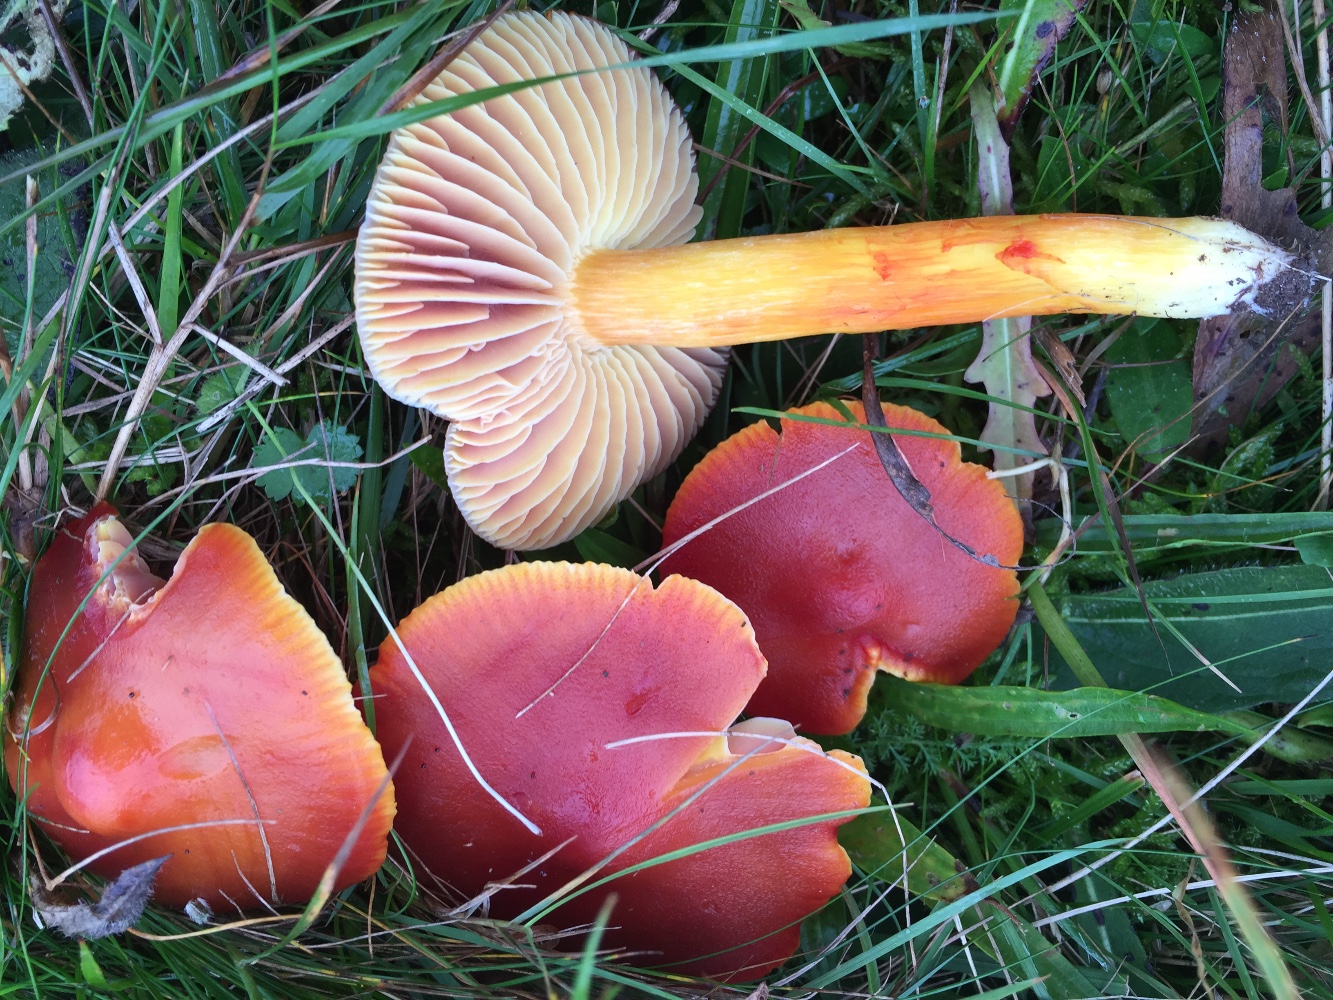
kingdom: Fungi
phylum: Basidiomycota
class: Agaricomycetes
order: Agaricales
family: Hygrophoraceae
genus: Hygrocybe
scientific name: Hygrocybe punicea
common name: skarlagen-vokshat
